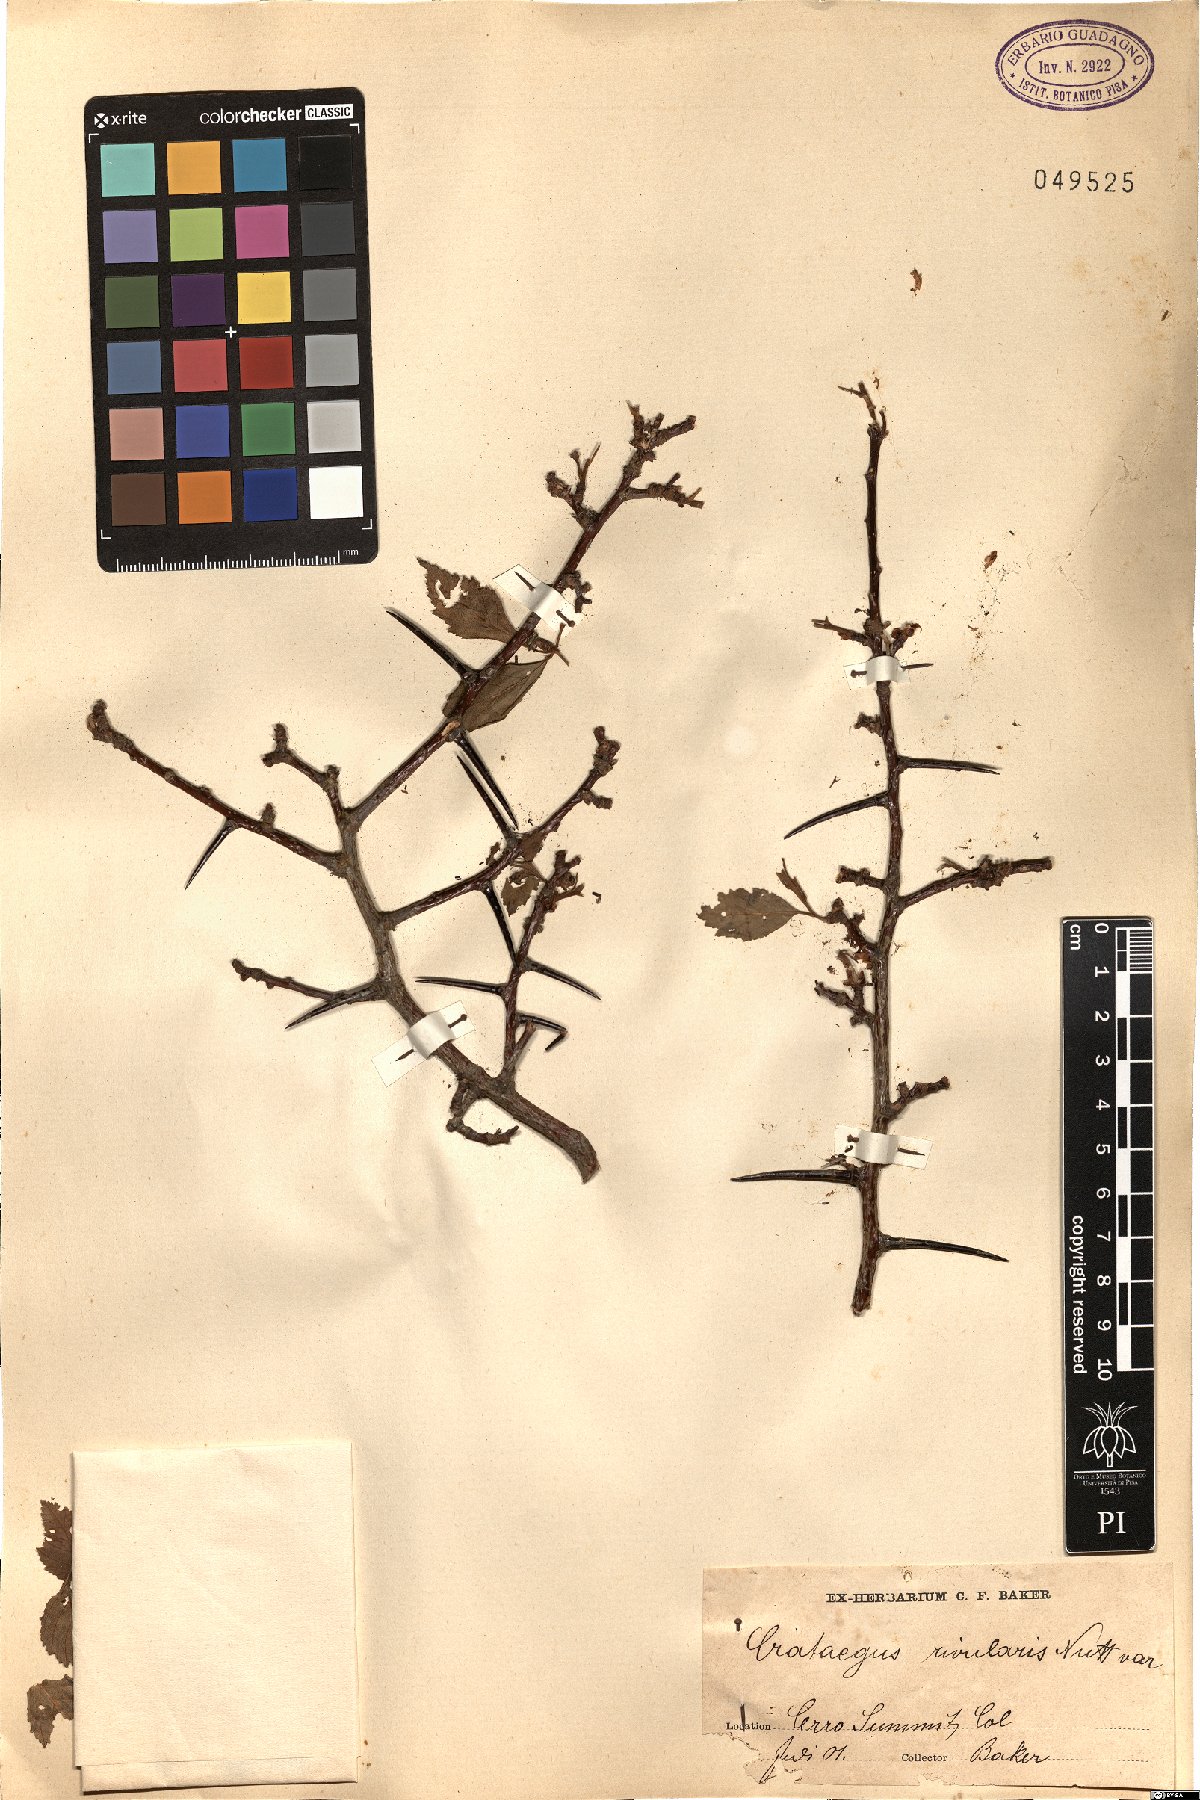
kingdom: Plantae
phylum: Tracheophyta
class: Magnoliopsida
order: Rosales
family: Rosaceae
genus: Crataegus
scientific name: Crataegus rivularis
